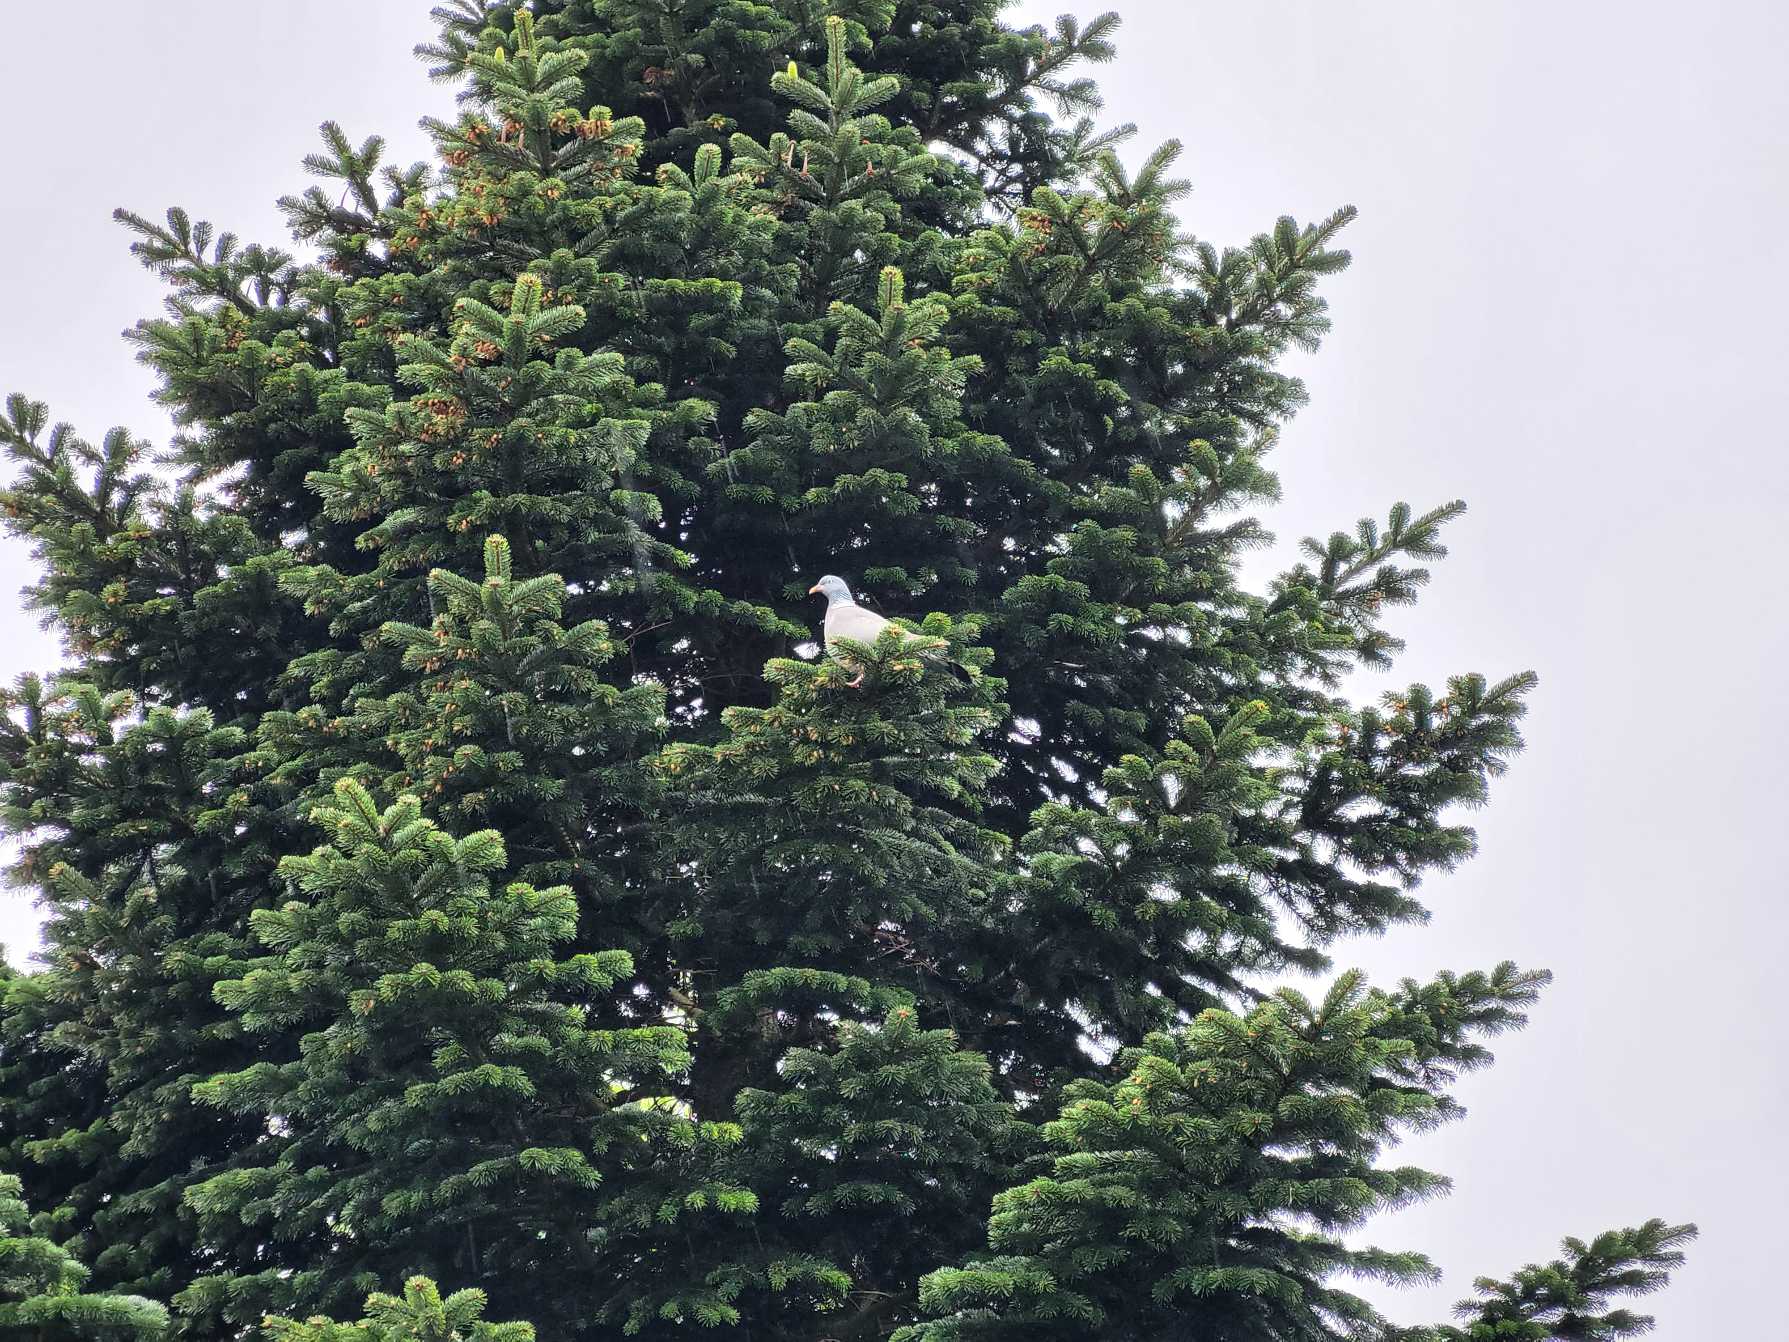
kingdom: Animalia
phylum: Chordata
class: Aves
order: Columbiformes
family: Columbidae
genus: Columba
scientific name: Columba palumbus
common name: Ringdue
